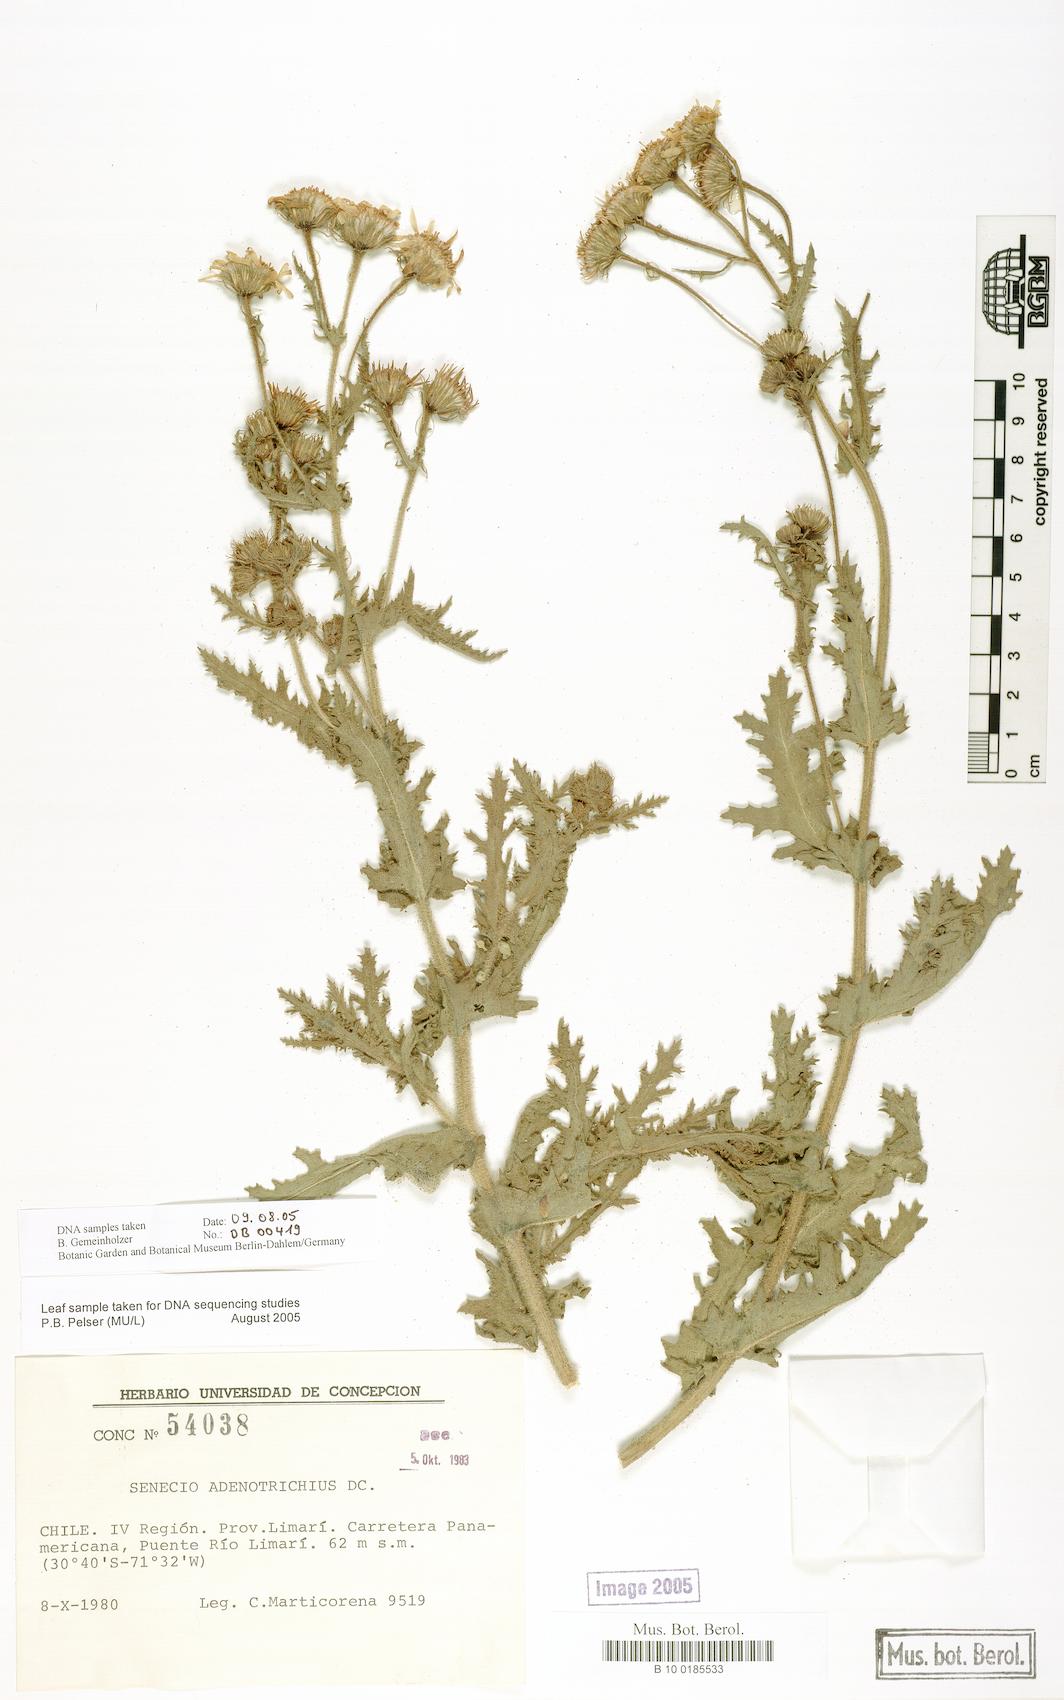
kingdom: Plantae
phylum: Tracheophyta
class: Magnoliopsida
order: Asterales
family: Asteraceae
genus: Senecio
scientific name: Senecio adenotrichius
